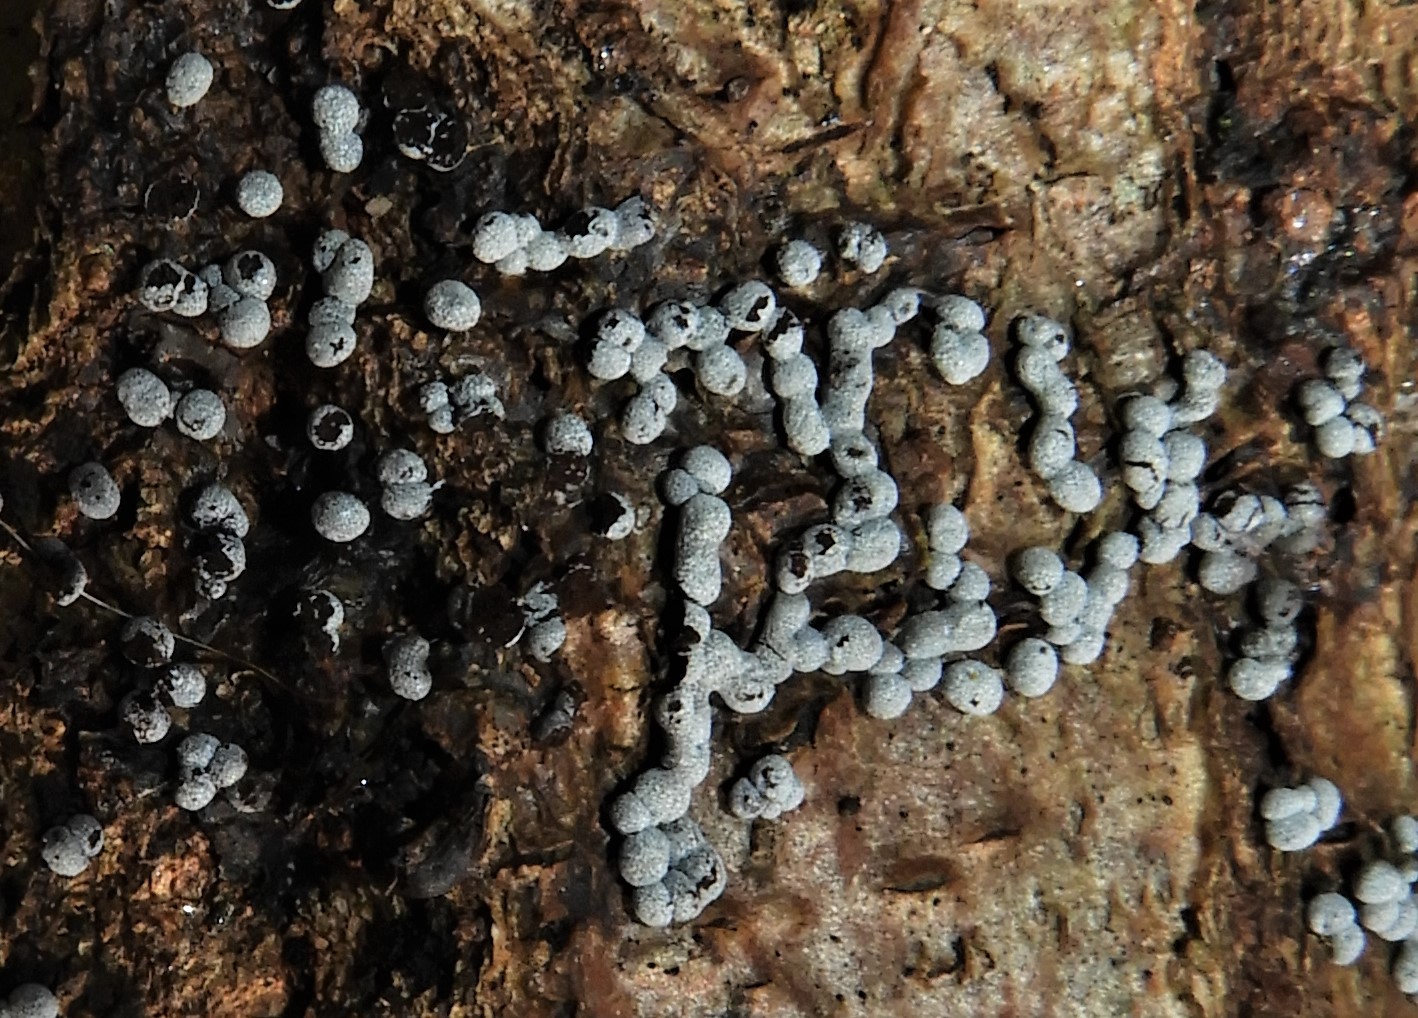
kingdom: Protozoa
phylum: Mycetozoa
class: Myxomycetes
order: Physarales
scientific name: Physarales
